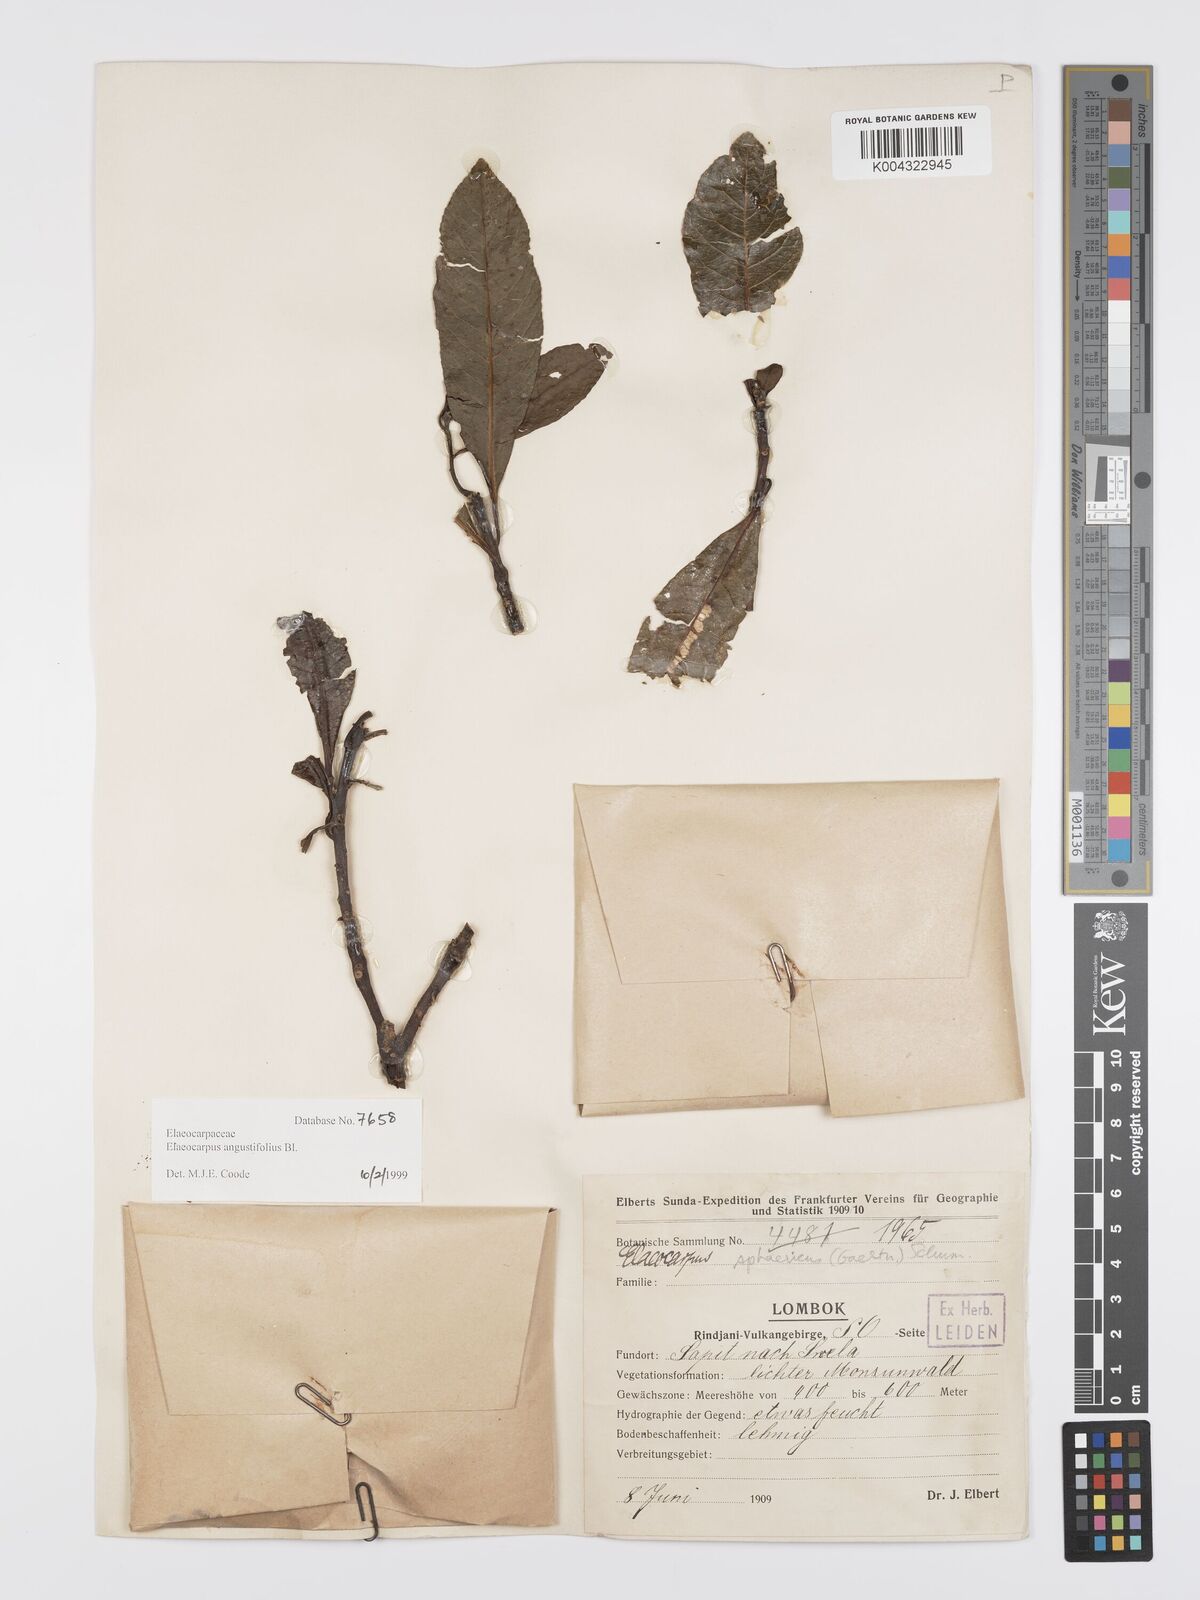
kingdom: Plantae
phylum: Tracheophyta
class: Magnoliopsida
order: Oxalidales
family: Elaeocarpaceae
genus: Elaeocarpus
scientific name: Elaeocarpus
